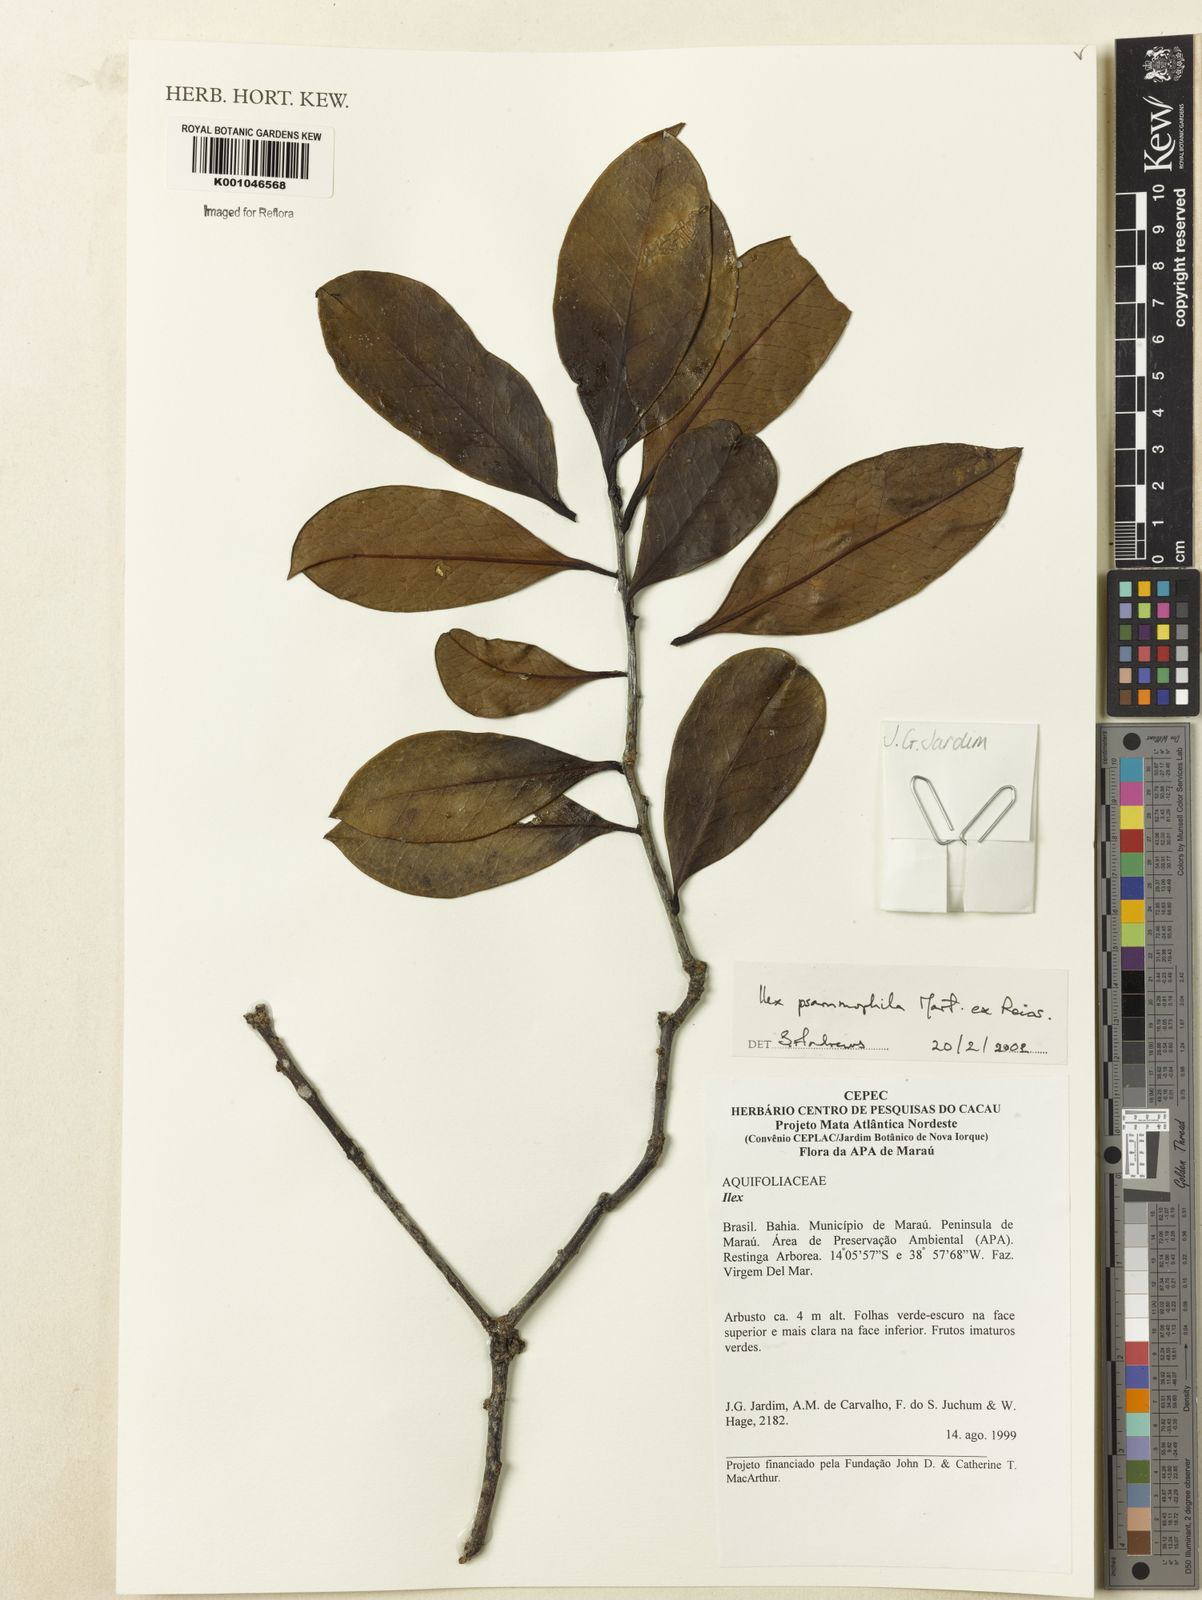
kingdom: Plantae
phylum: Tracheophyta
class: Magnoliopsida
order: Aquifoliales
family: Aquifoliaceae
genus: Ilex
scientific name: Ilex psammophila
